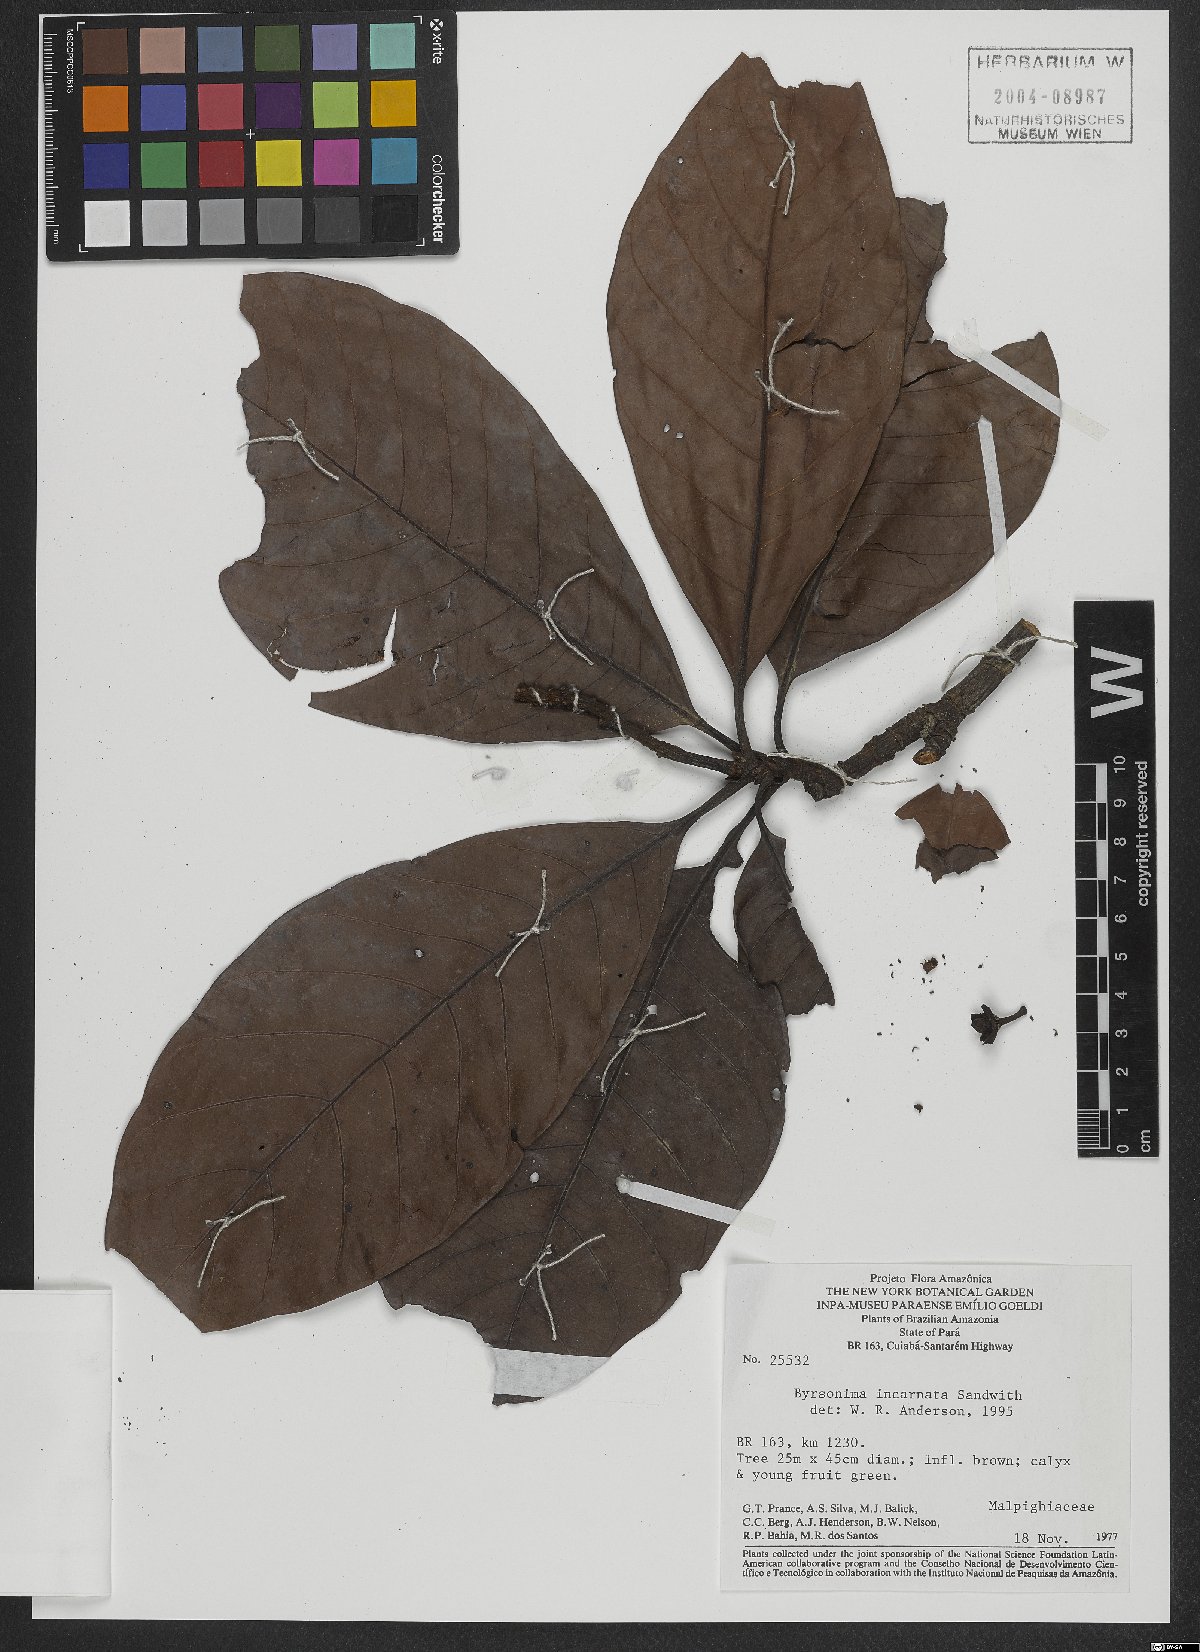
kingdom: Plantae
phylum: Tracheophyta
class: Magnoliopsida
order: Malpighiales
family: Malpighiaceae
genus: Byrsonima
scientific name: Byrsonima incarnata
